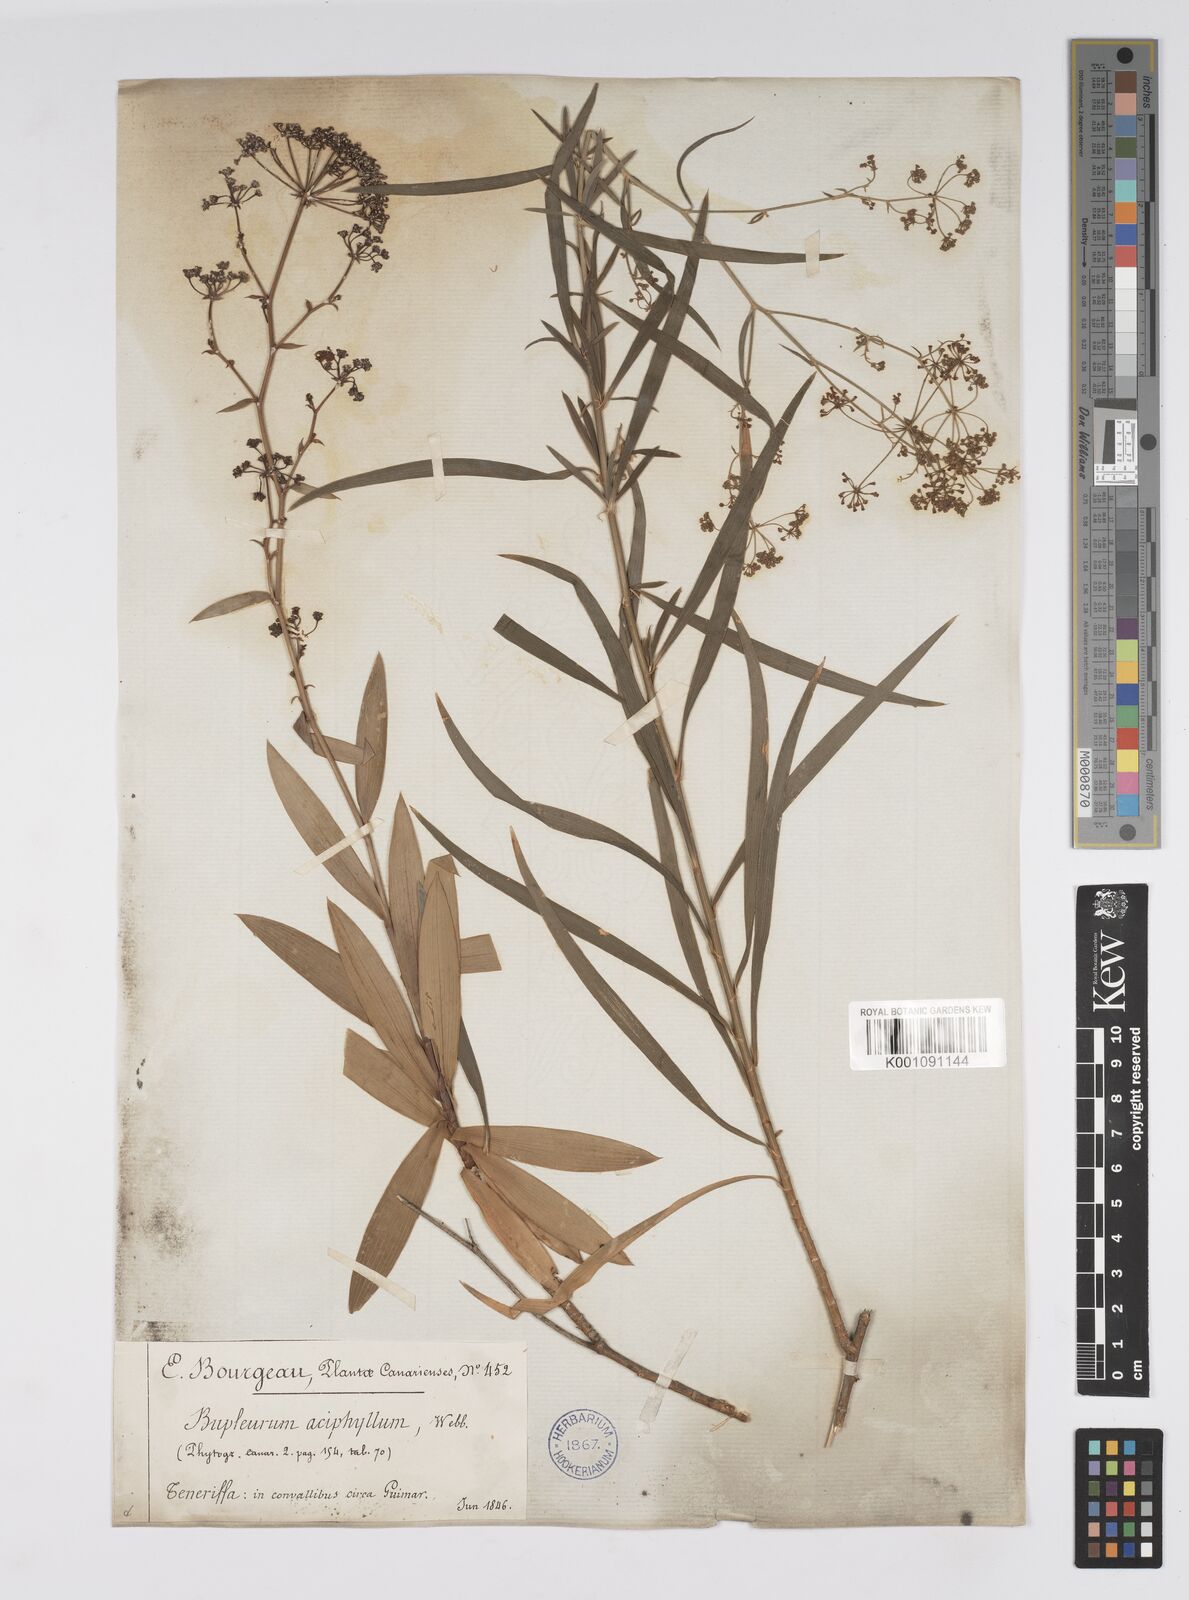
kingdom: Plantae
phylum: Tracheophyta
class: Magnoliopsida
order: Apiales
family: Apiaceae
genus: Bupleurum
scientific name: Bupleurum salicifolium
